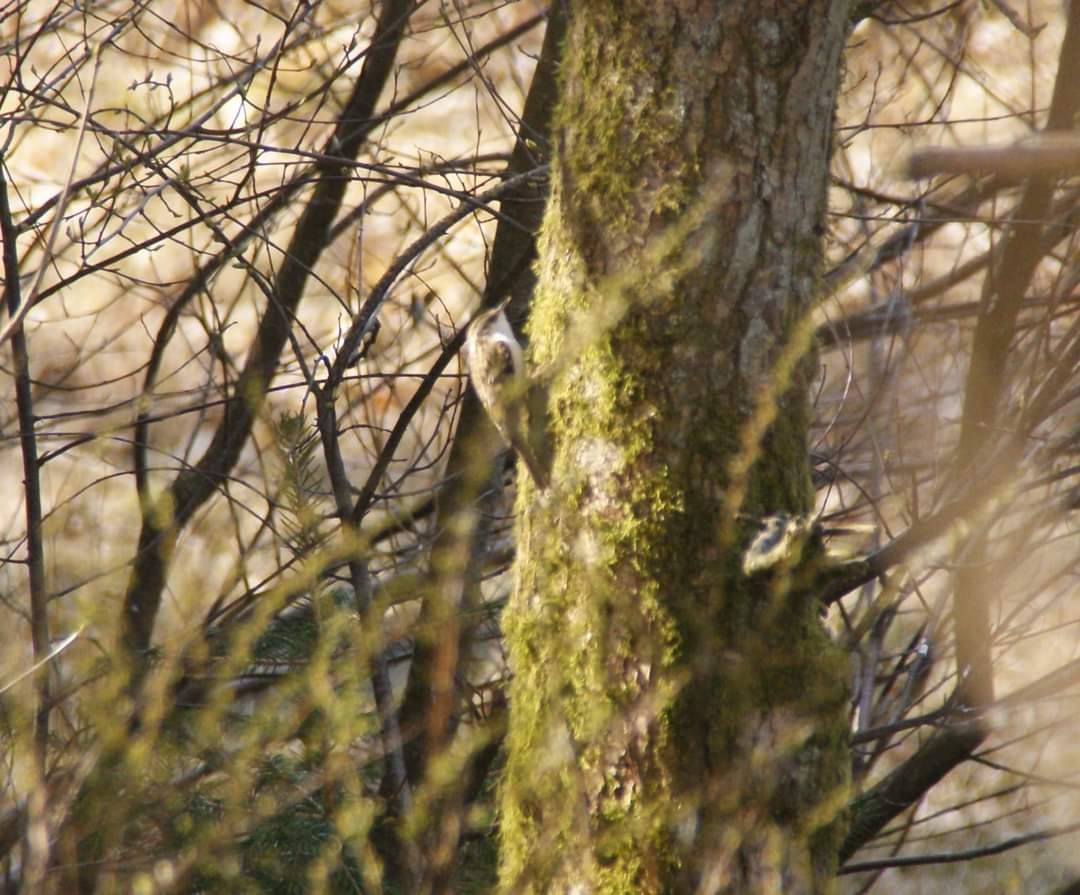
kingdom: Animalia
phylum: Chordata
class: Aves
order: Passeriformes
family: Certhiidae
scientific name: Certhiidae
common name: Træløbere
